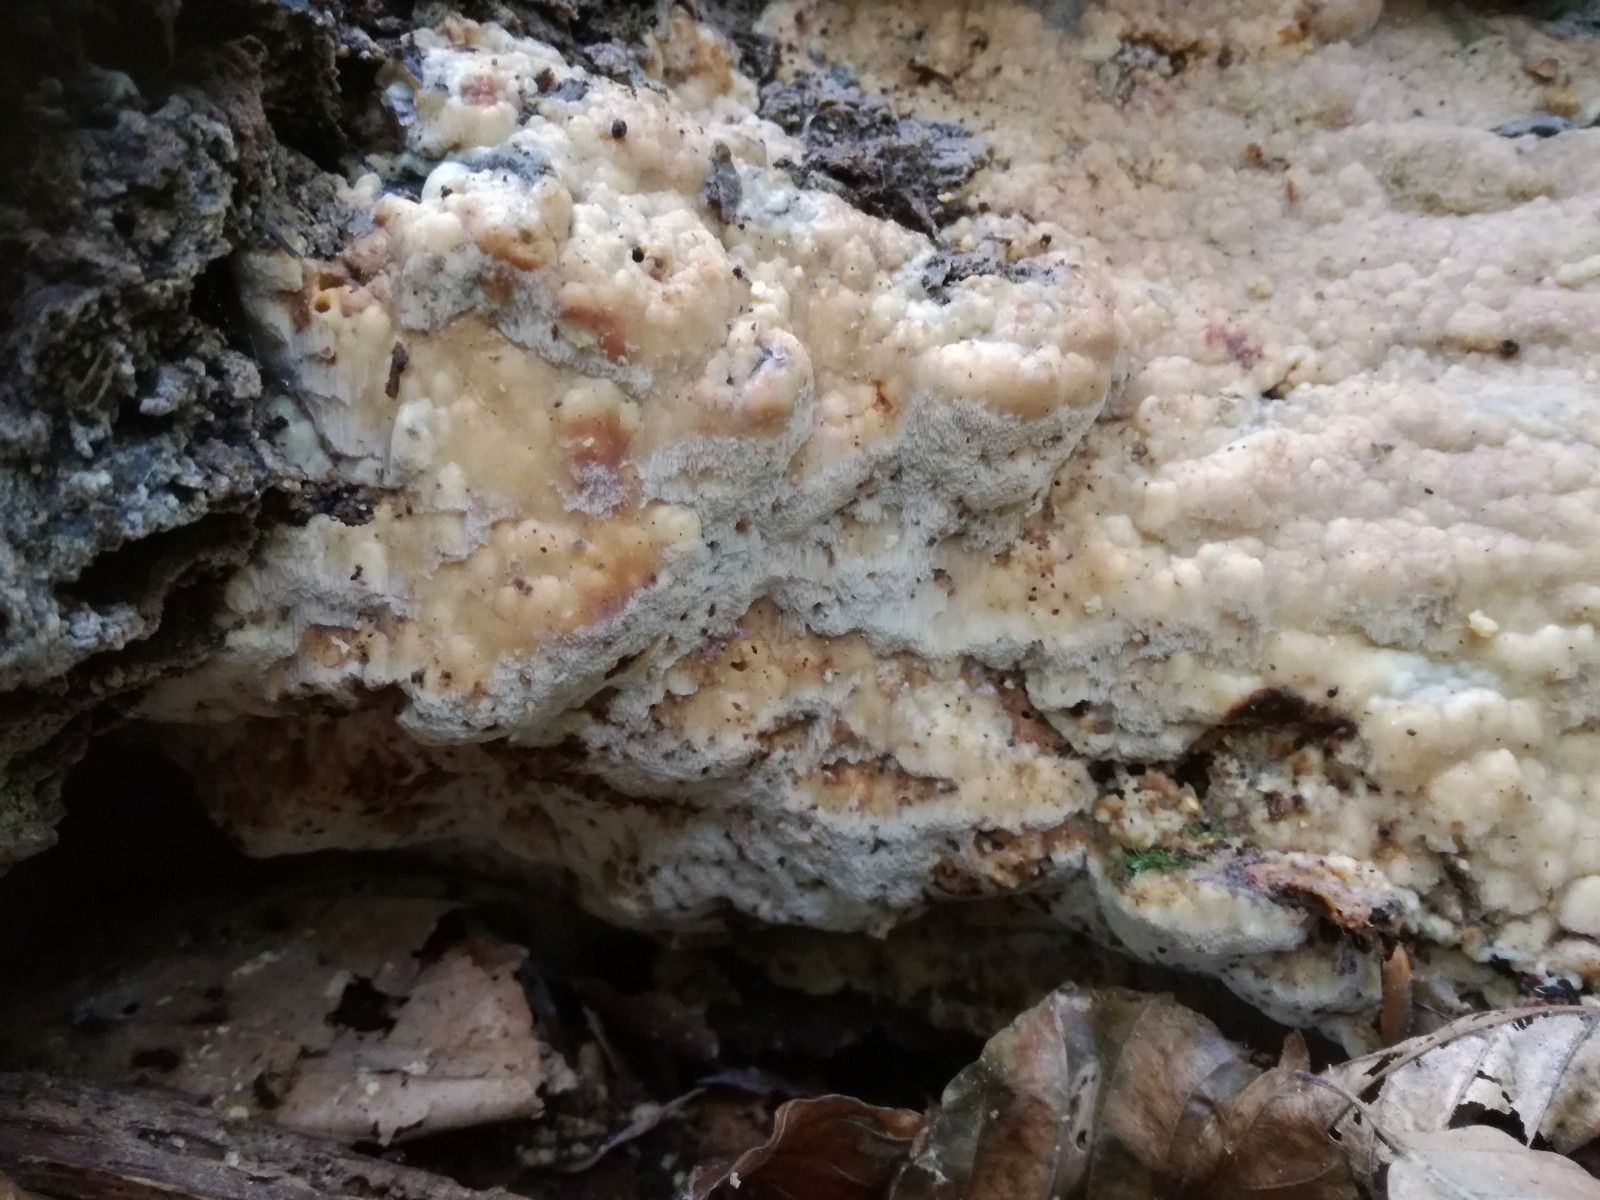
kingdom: Fungi
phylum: Basidiomycota
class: Agaricomycetes
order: Polyporales
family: Steccherinaceae
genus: Antrodiella
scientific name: Antrodiella mentschulensis
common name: abrikosporesvamp
